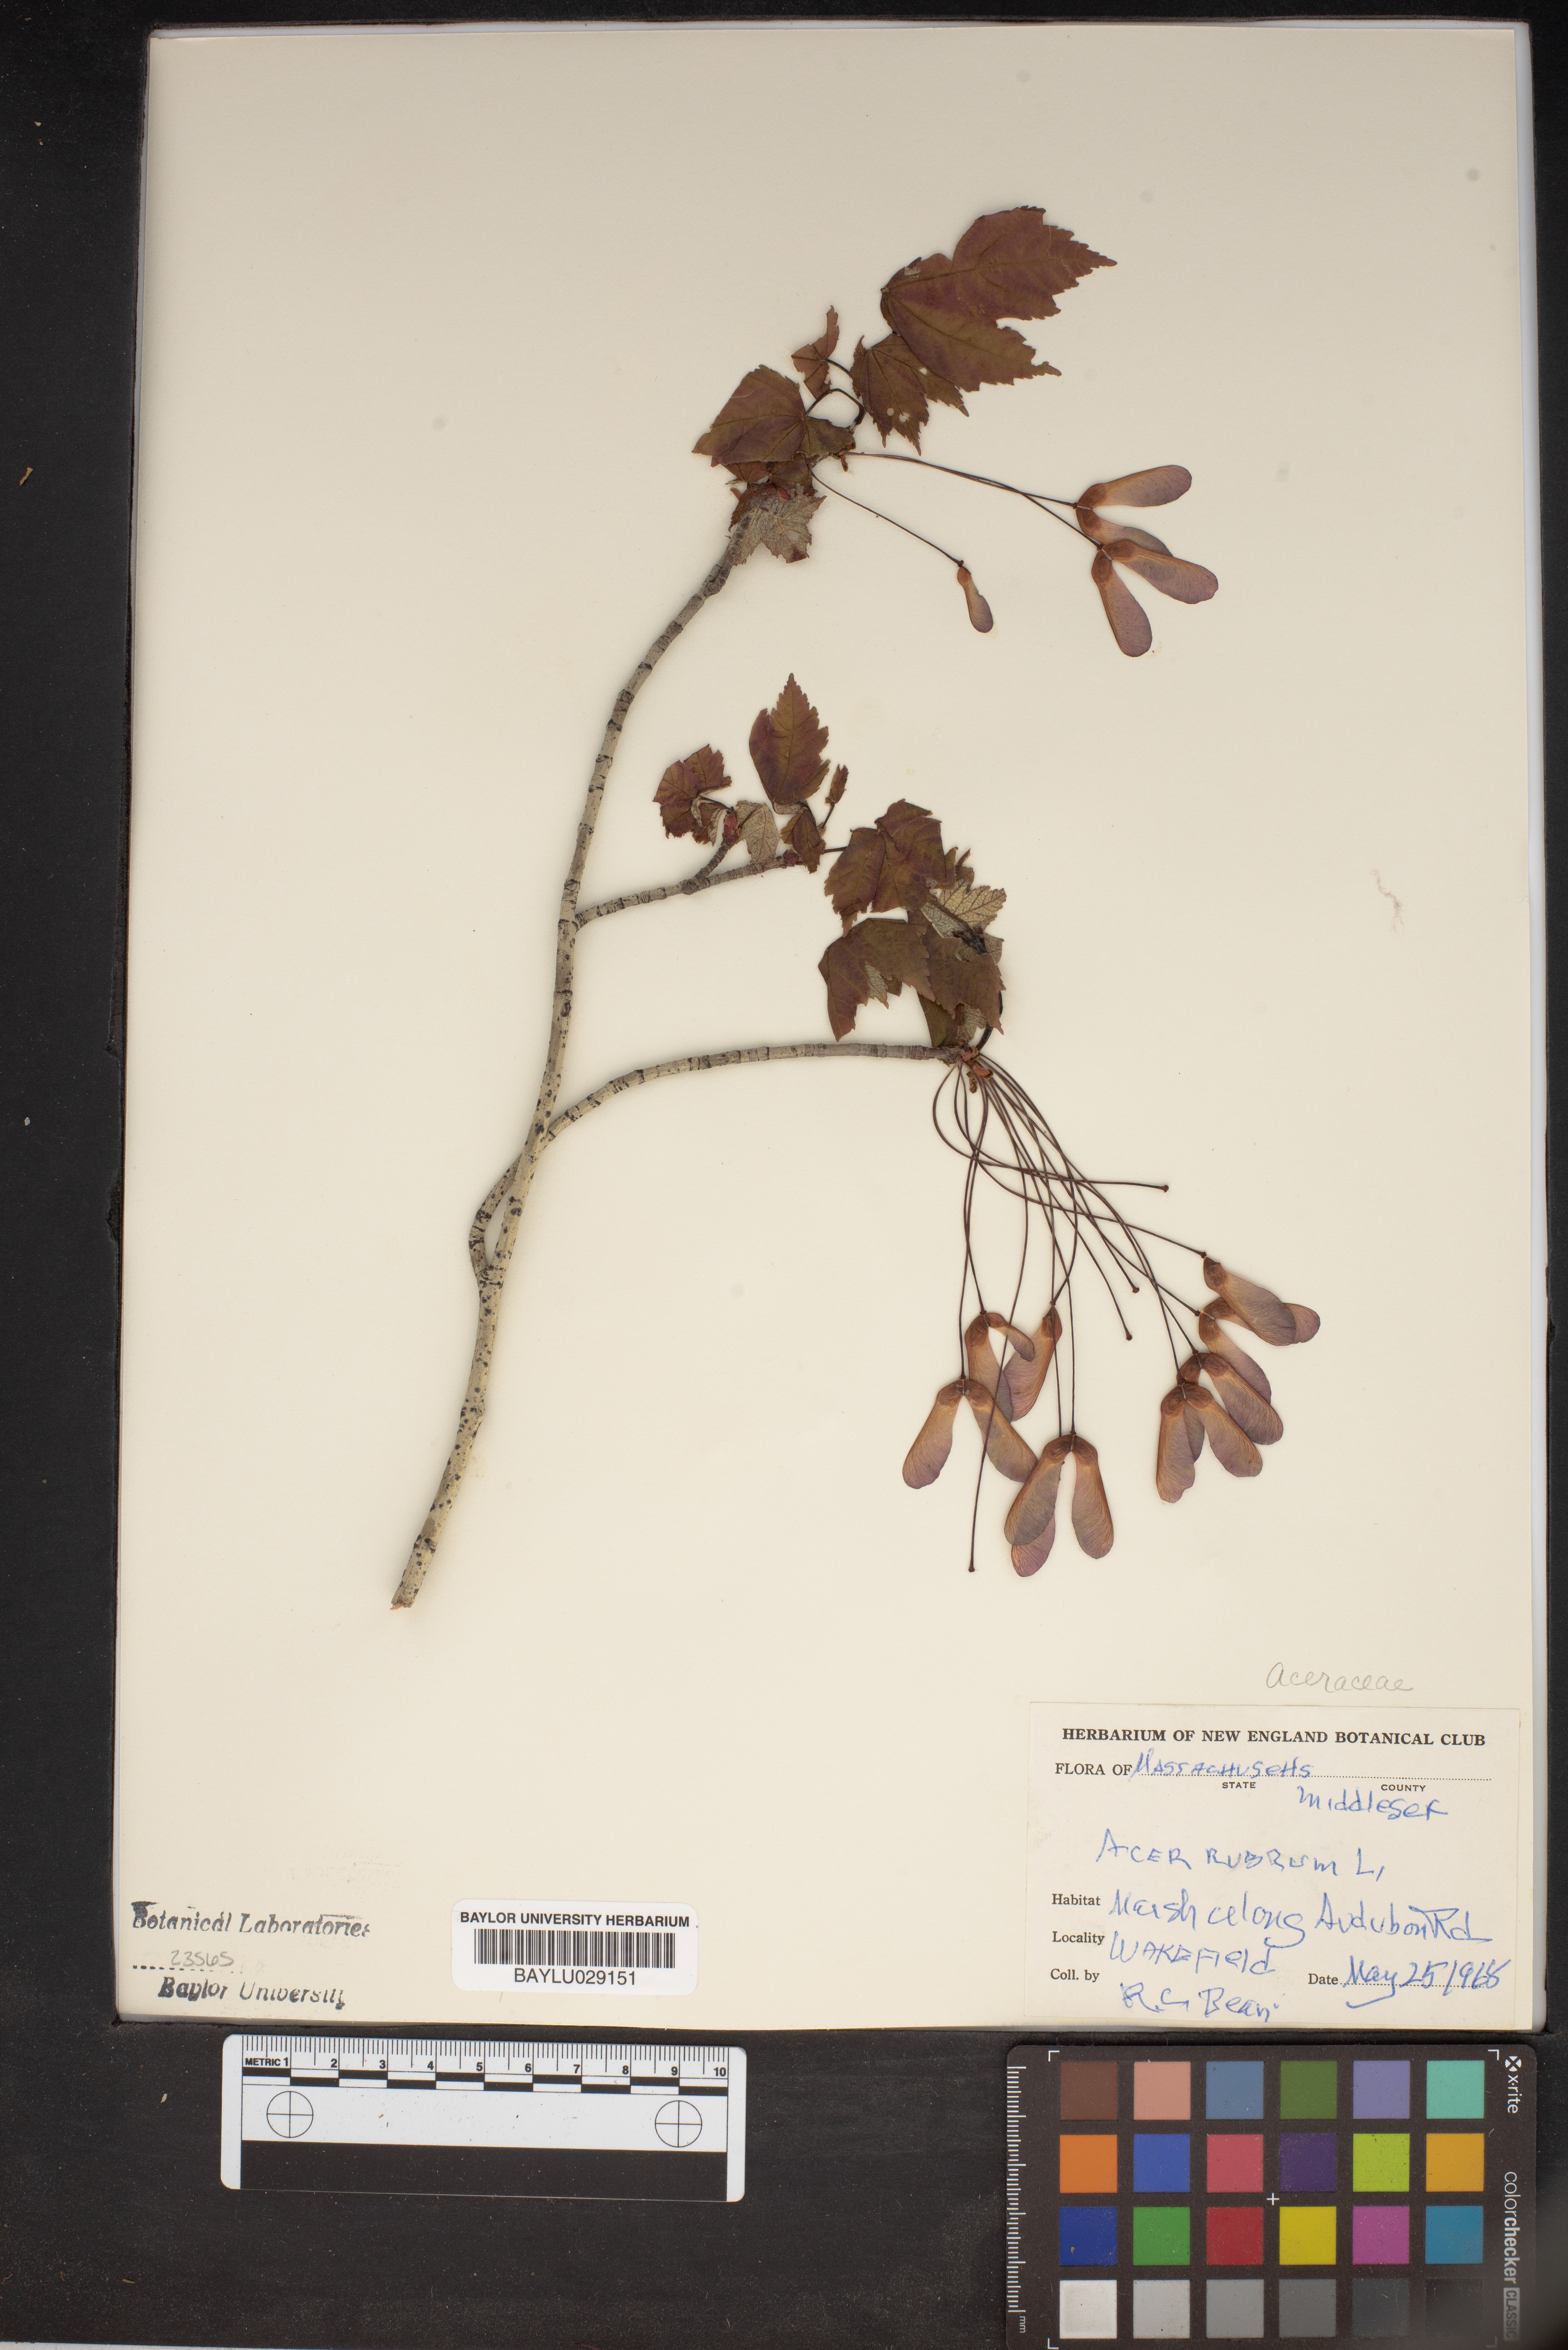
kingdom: Plantae
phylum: Tracheophyta
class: Magnoliopsida
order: Sapindales
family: Sapindaceae
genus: Acer
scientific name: Acer rubrum
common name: Red maple
